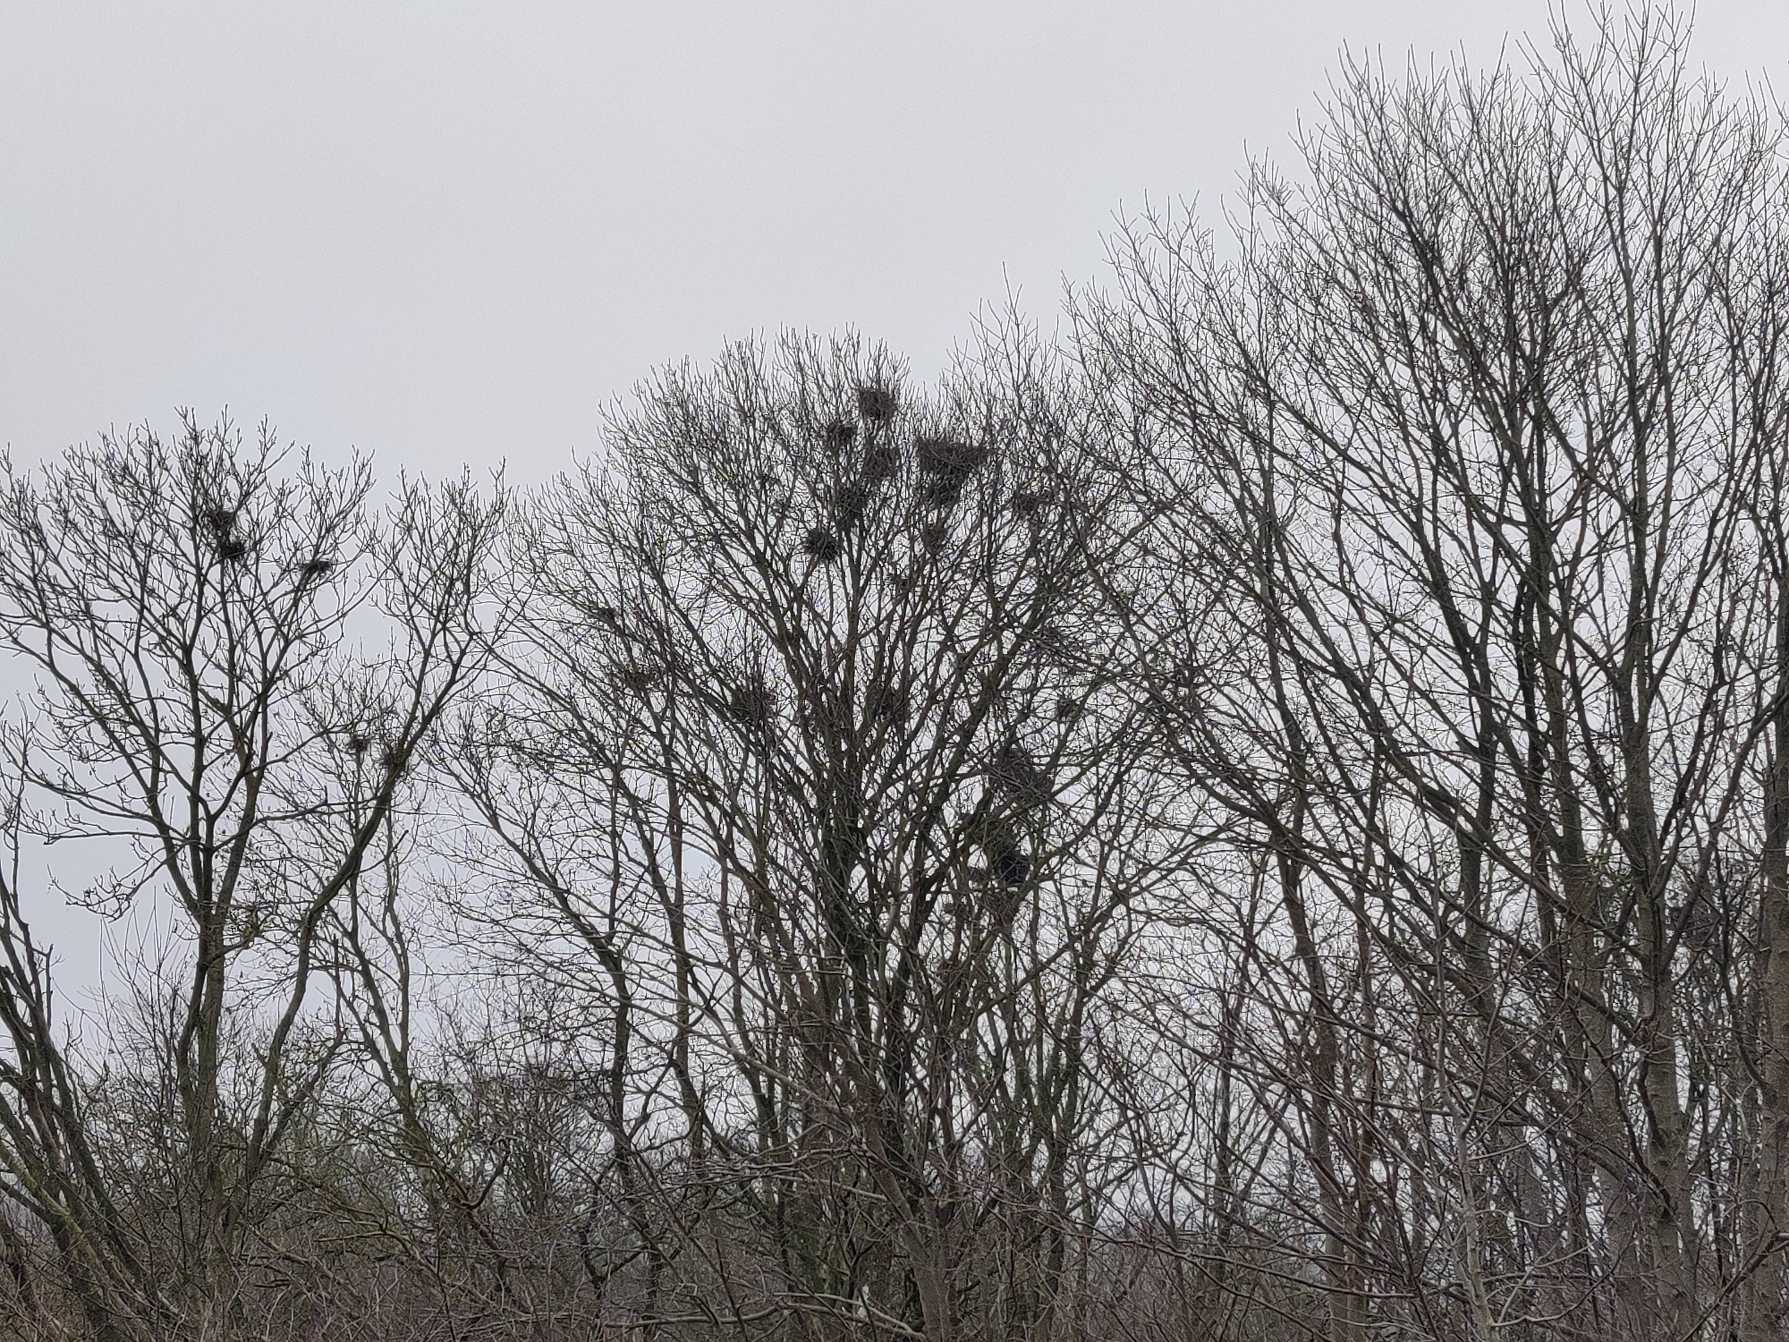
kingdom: Animalia
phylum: Chordata
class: Aves
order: Passeriformes
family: Corvidae
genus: Corvus
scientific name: Corvus frugilegus
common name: Råge
